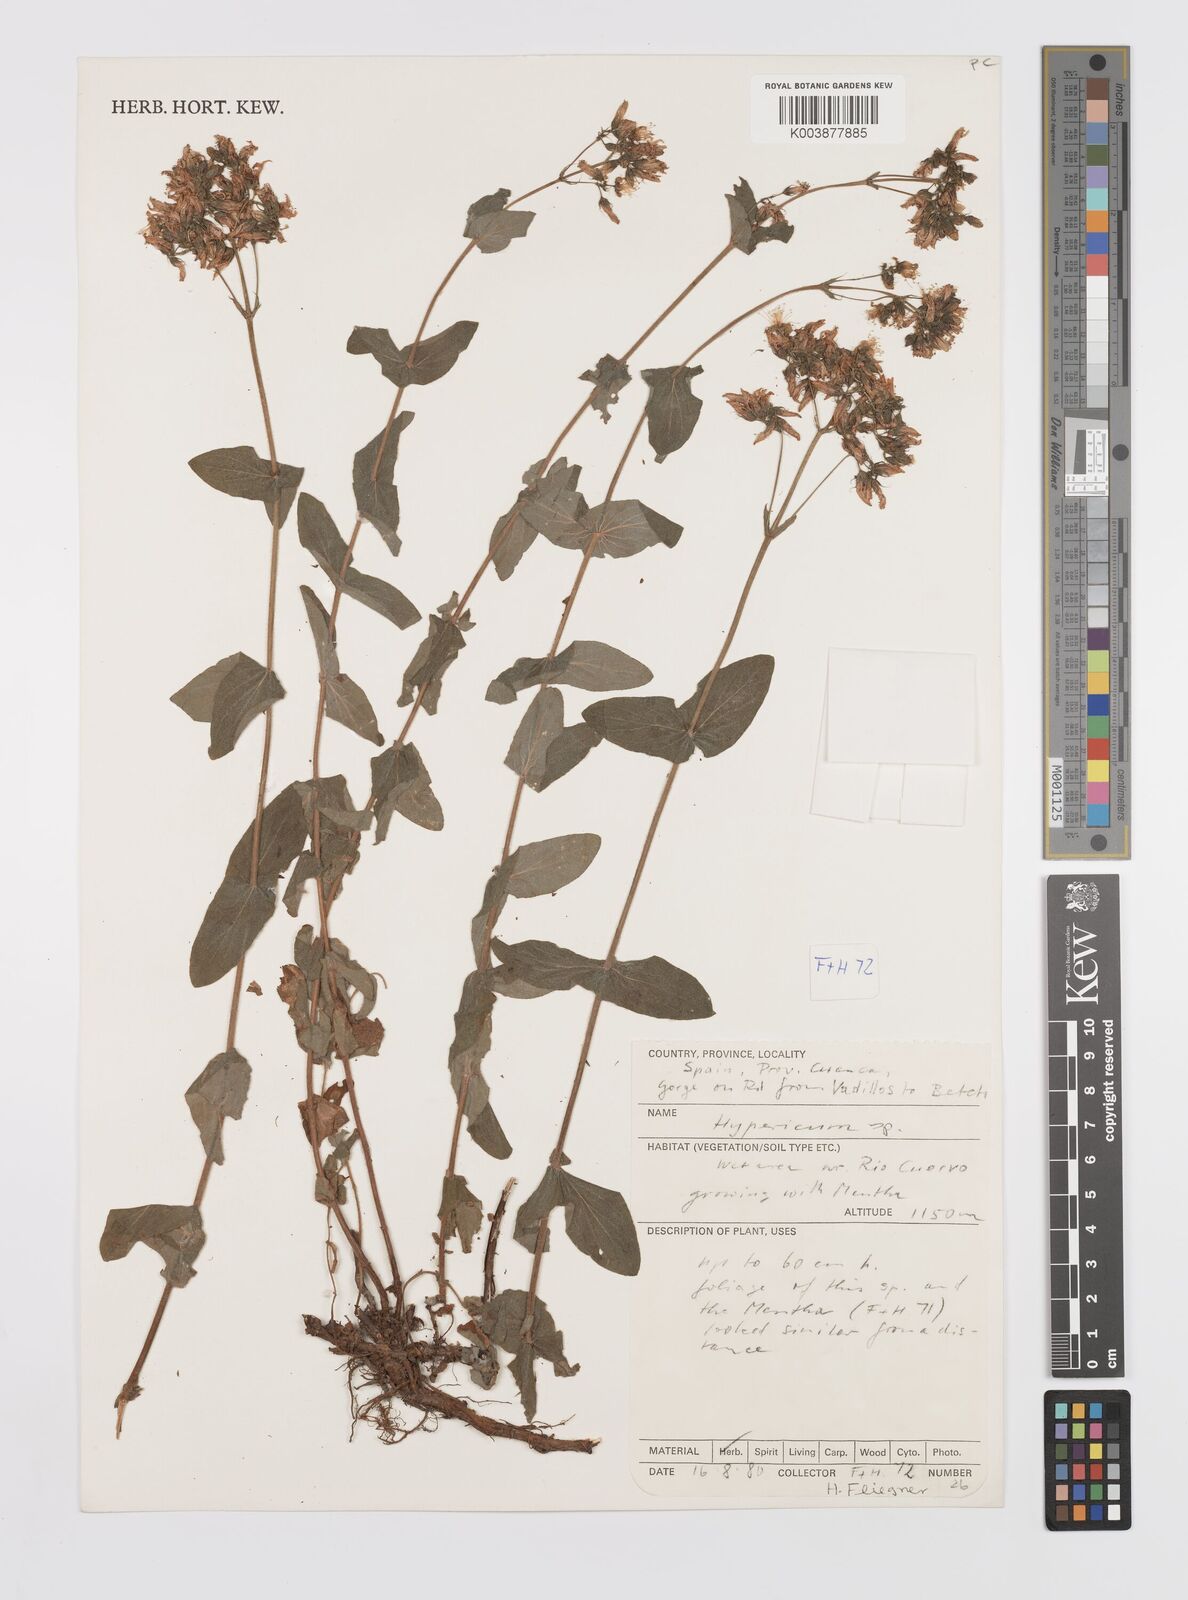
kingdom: Plantae
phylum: Tracheophyta
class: Magnoliopsida
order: Malpighiales
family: Hypericaceae
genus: Hypericum
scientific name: Hypericum caprifolium
